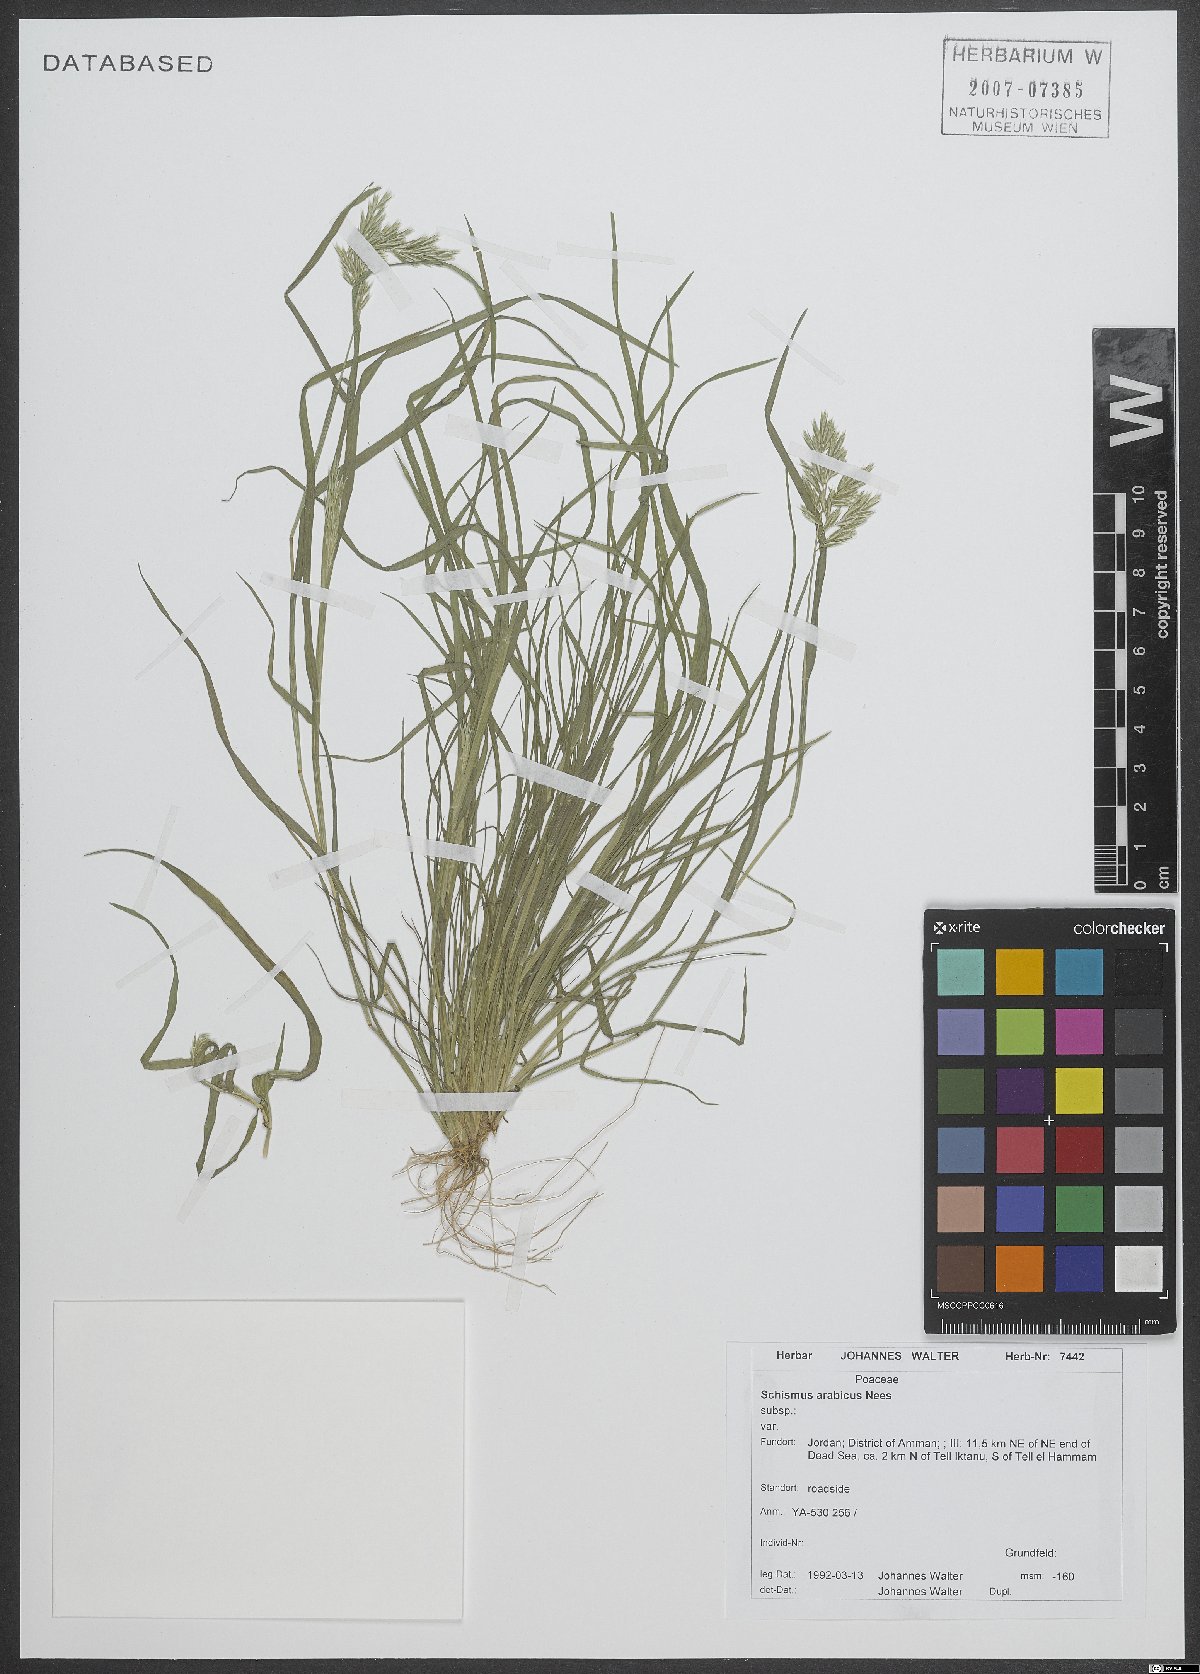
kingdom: Plantae
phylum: Tracheophyta
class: Liliopsida
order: Poales
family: Poaceae
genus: Schismus
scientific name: Schismus arabicus
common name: Arabian schismus
